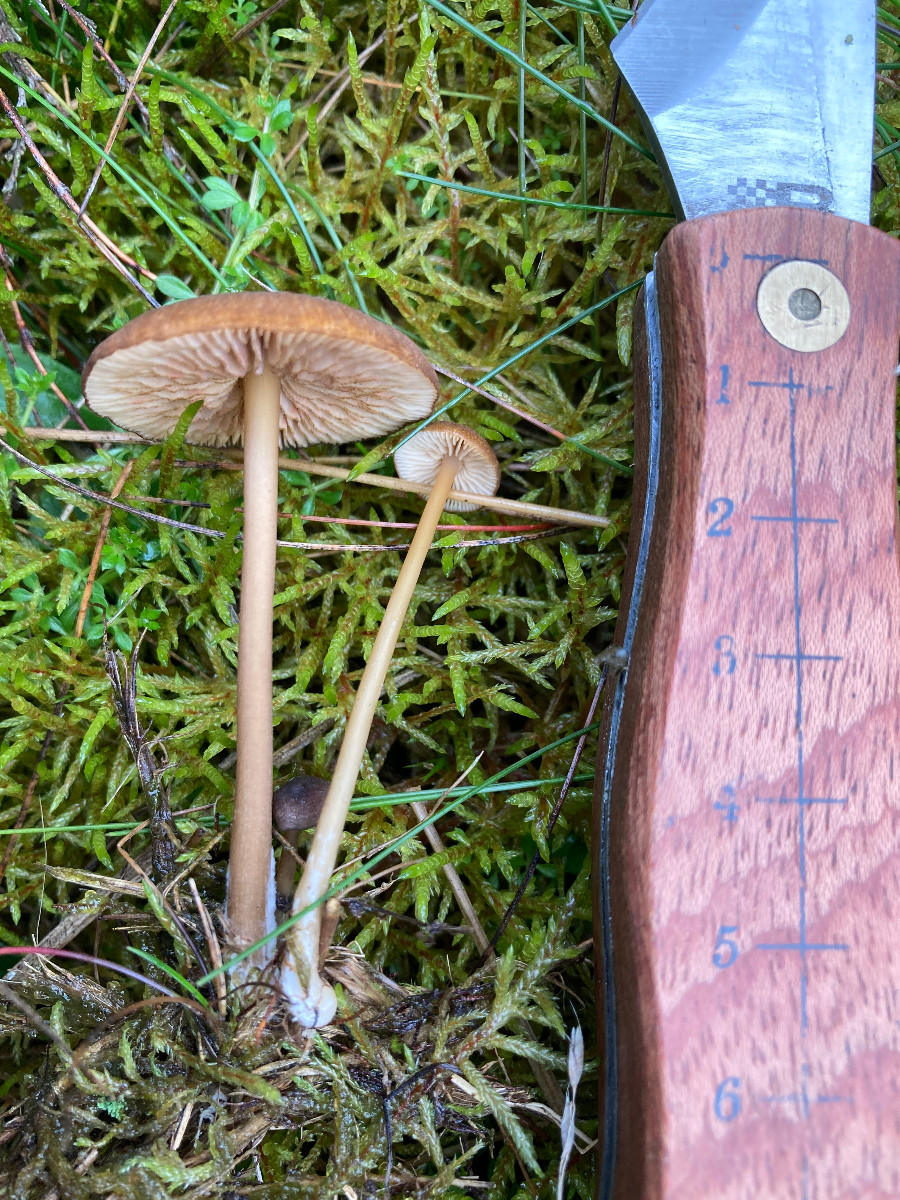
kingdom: Fungi
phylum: Basidiomycota
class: Agaricomycetes
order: Agaricales
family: Entolomataceae
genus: Entoloma
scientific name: Entoloma formosum
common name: brungul rødblad
